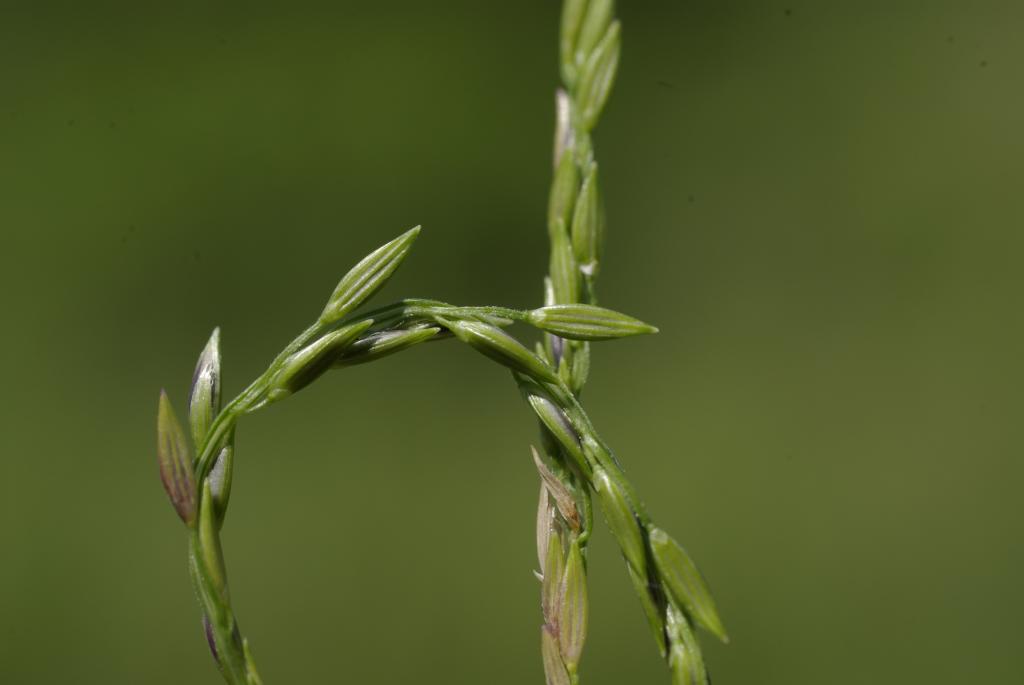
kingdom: Plantae
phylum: Tracheophyta
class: Liliopsida
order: Poales
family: Poaceae
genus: Digitaria
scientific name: Digitaria ciliaris
